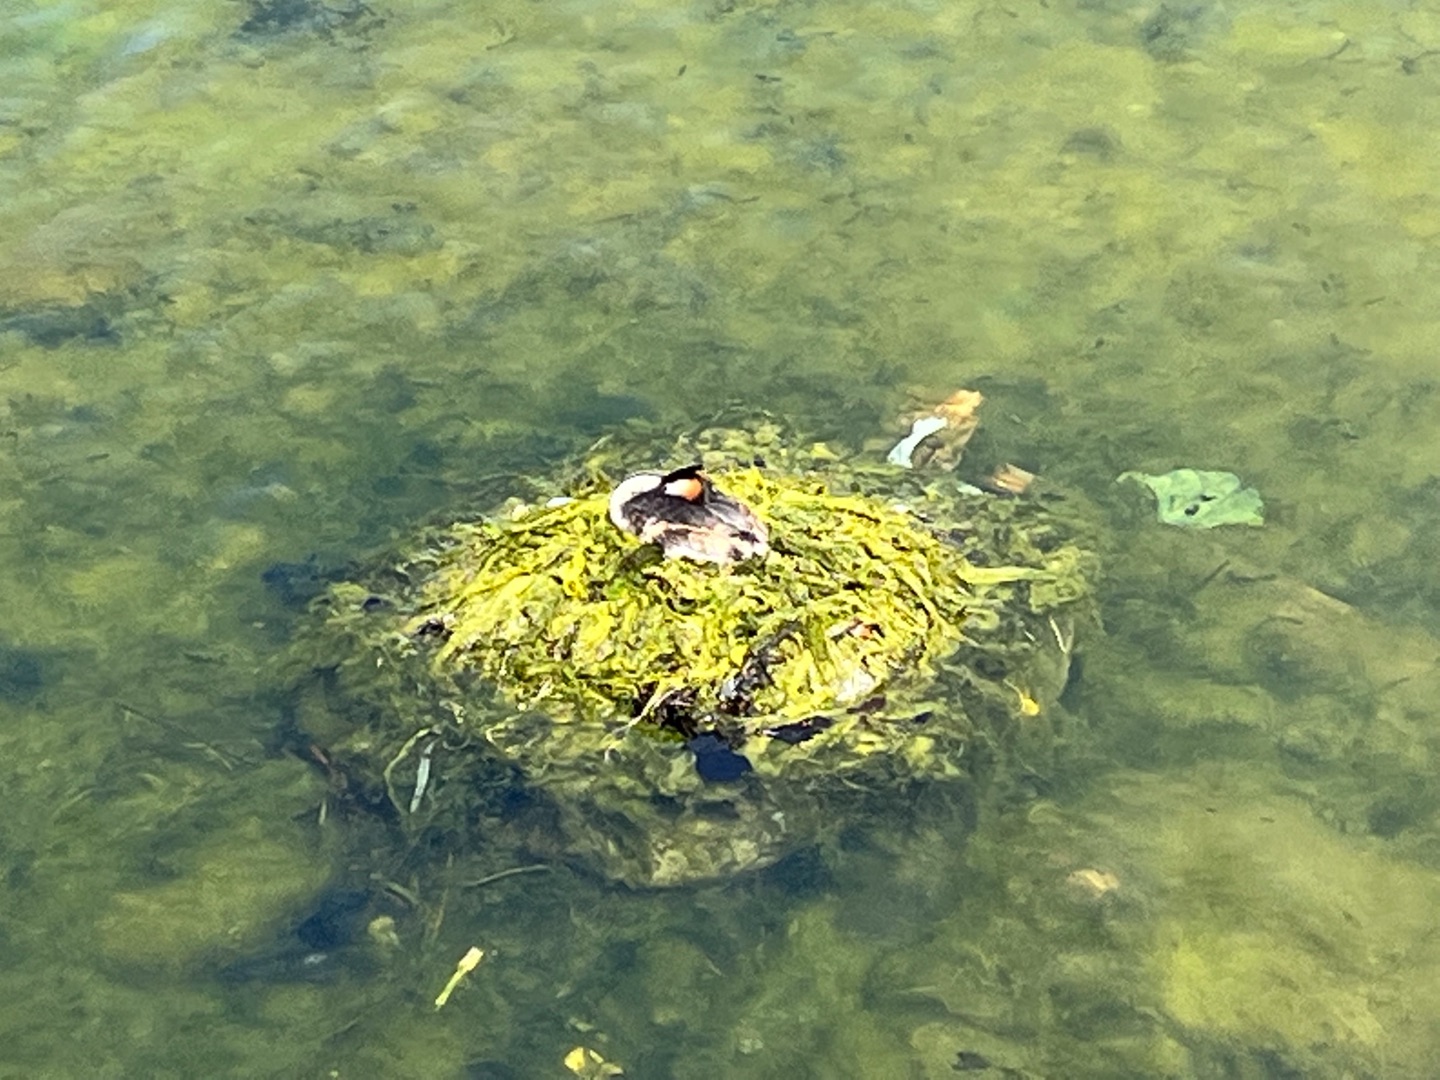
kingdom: Animalia
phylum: Chordata
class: Aves
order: Podicipediformes
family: Podicipedidae
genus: Podiceps
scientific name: Podiceps cristatus
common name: Toppet lappedykker
